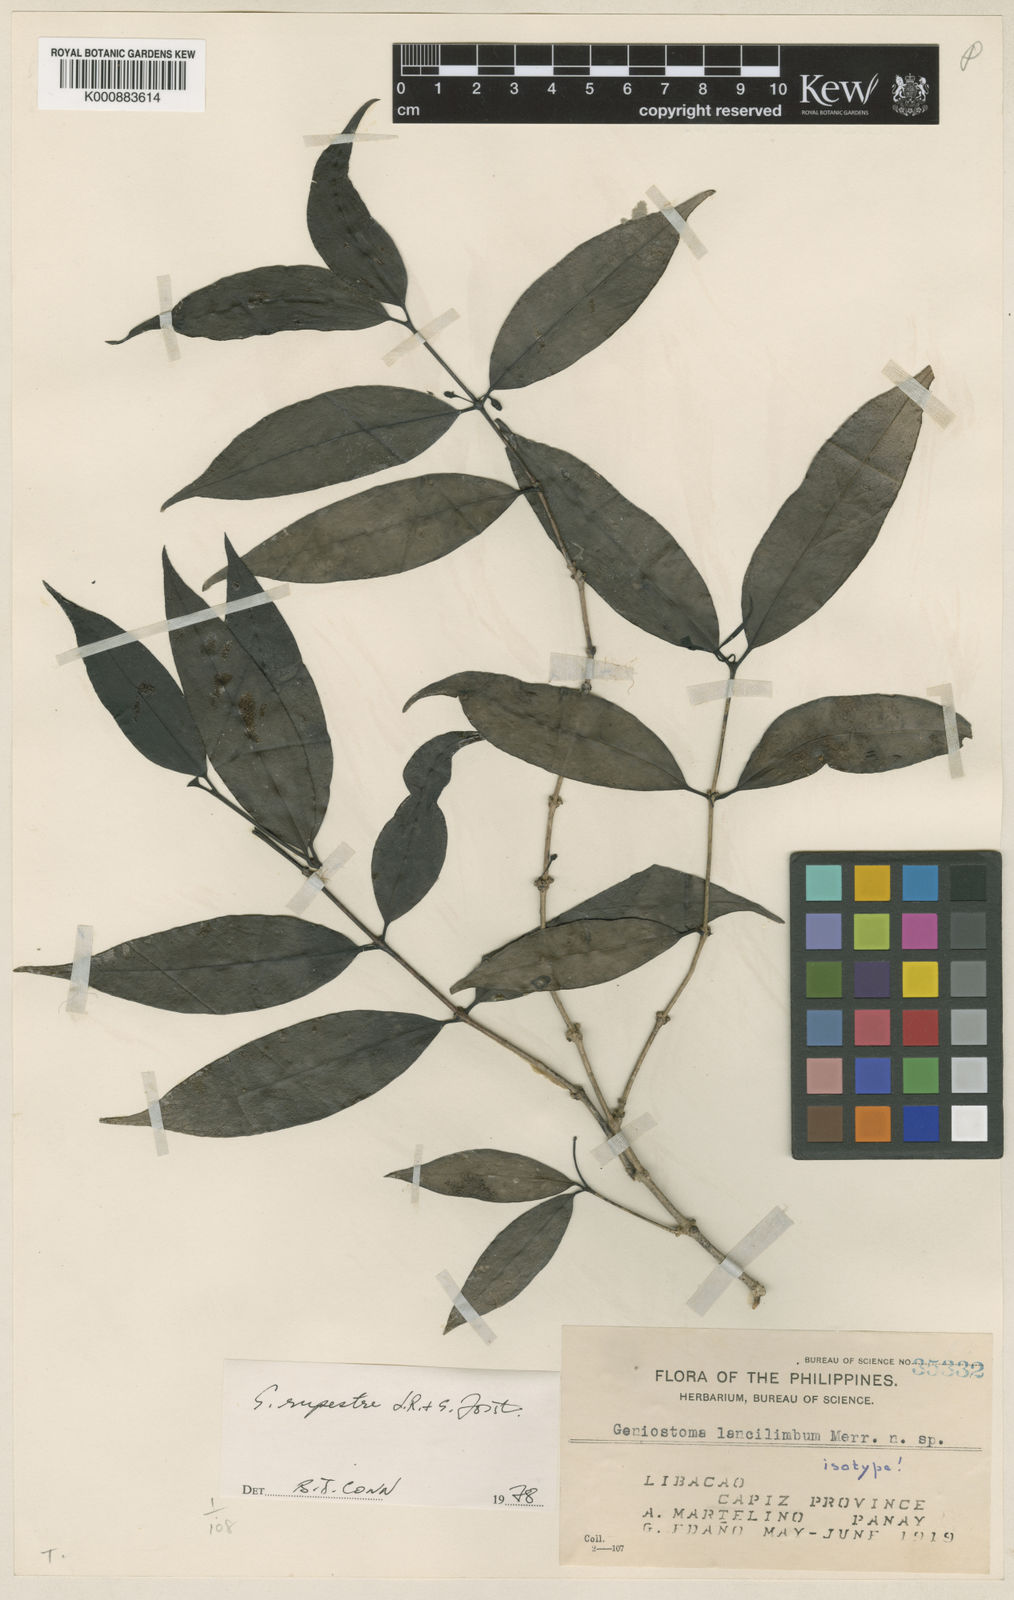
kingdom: Plantae
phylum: Tracheophyta
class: Magnoliopsida
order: Gentianales
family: Loganiaceae
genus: Geniostoma
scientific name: Geniostoma rupestre
